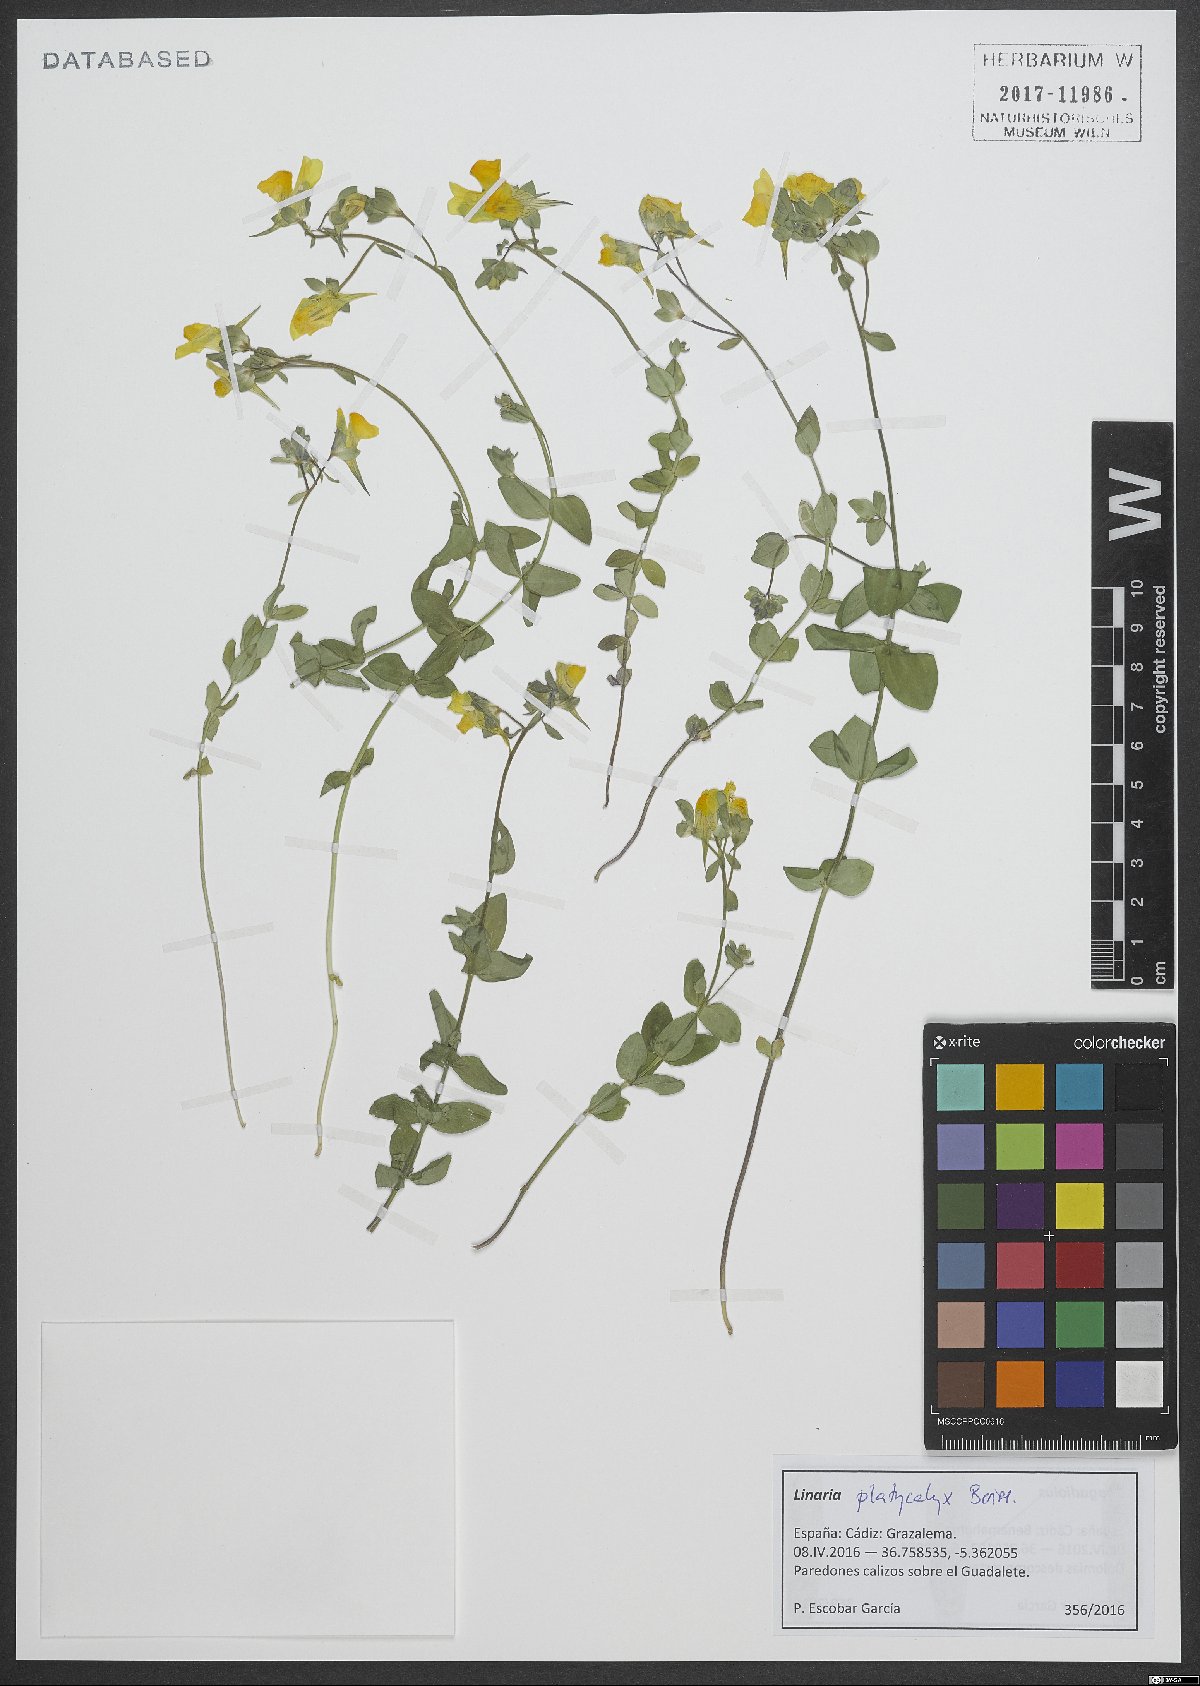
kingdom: Plantae
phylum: Tracheophyta
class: Magnoliopsida
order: Lamiales
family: Plantaginaceae
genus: Linaria
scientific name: Linaria platycalyx
